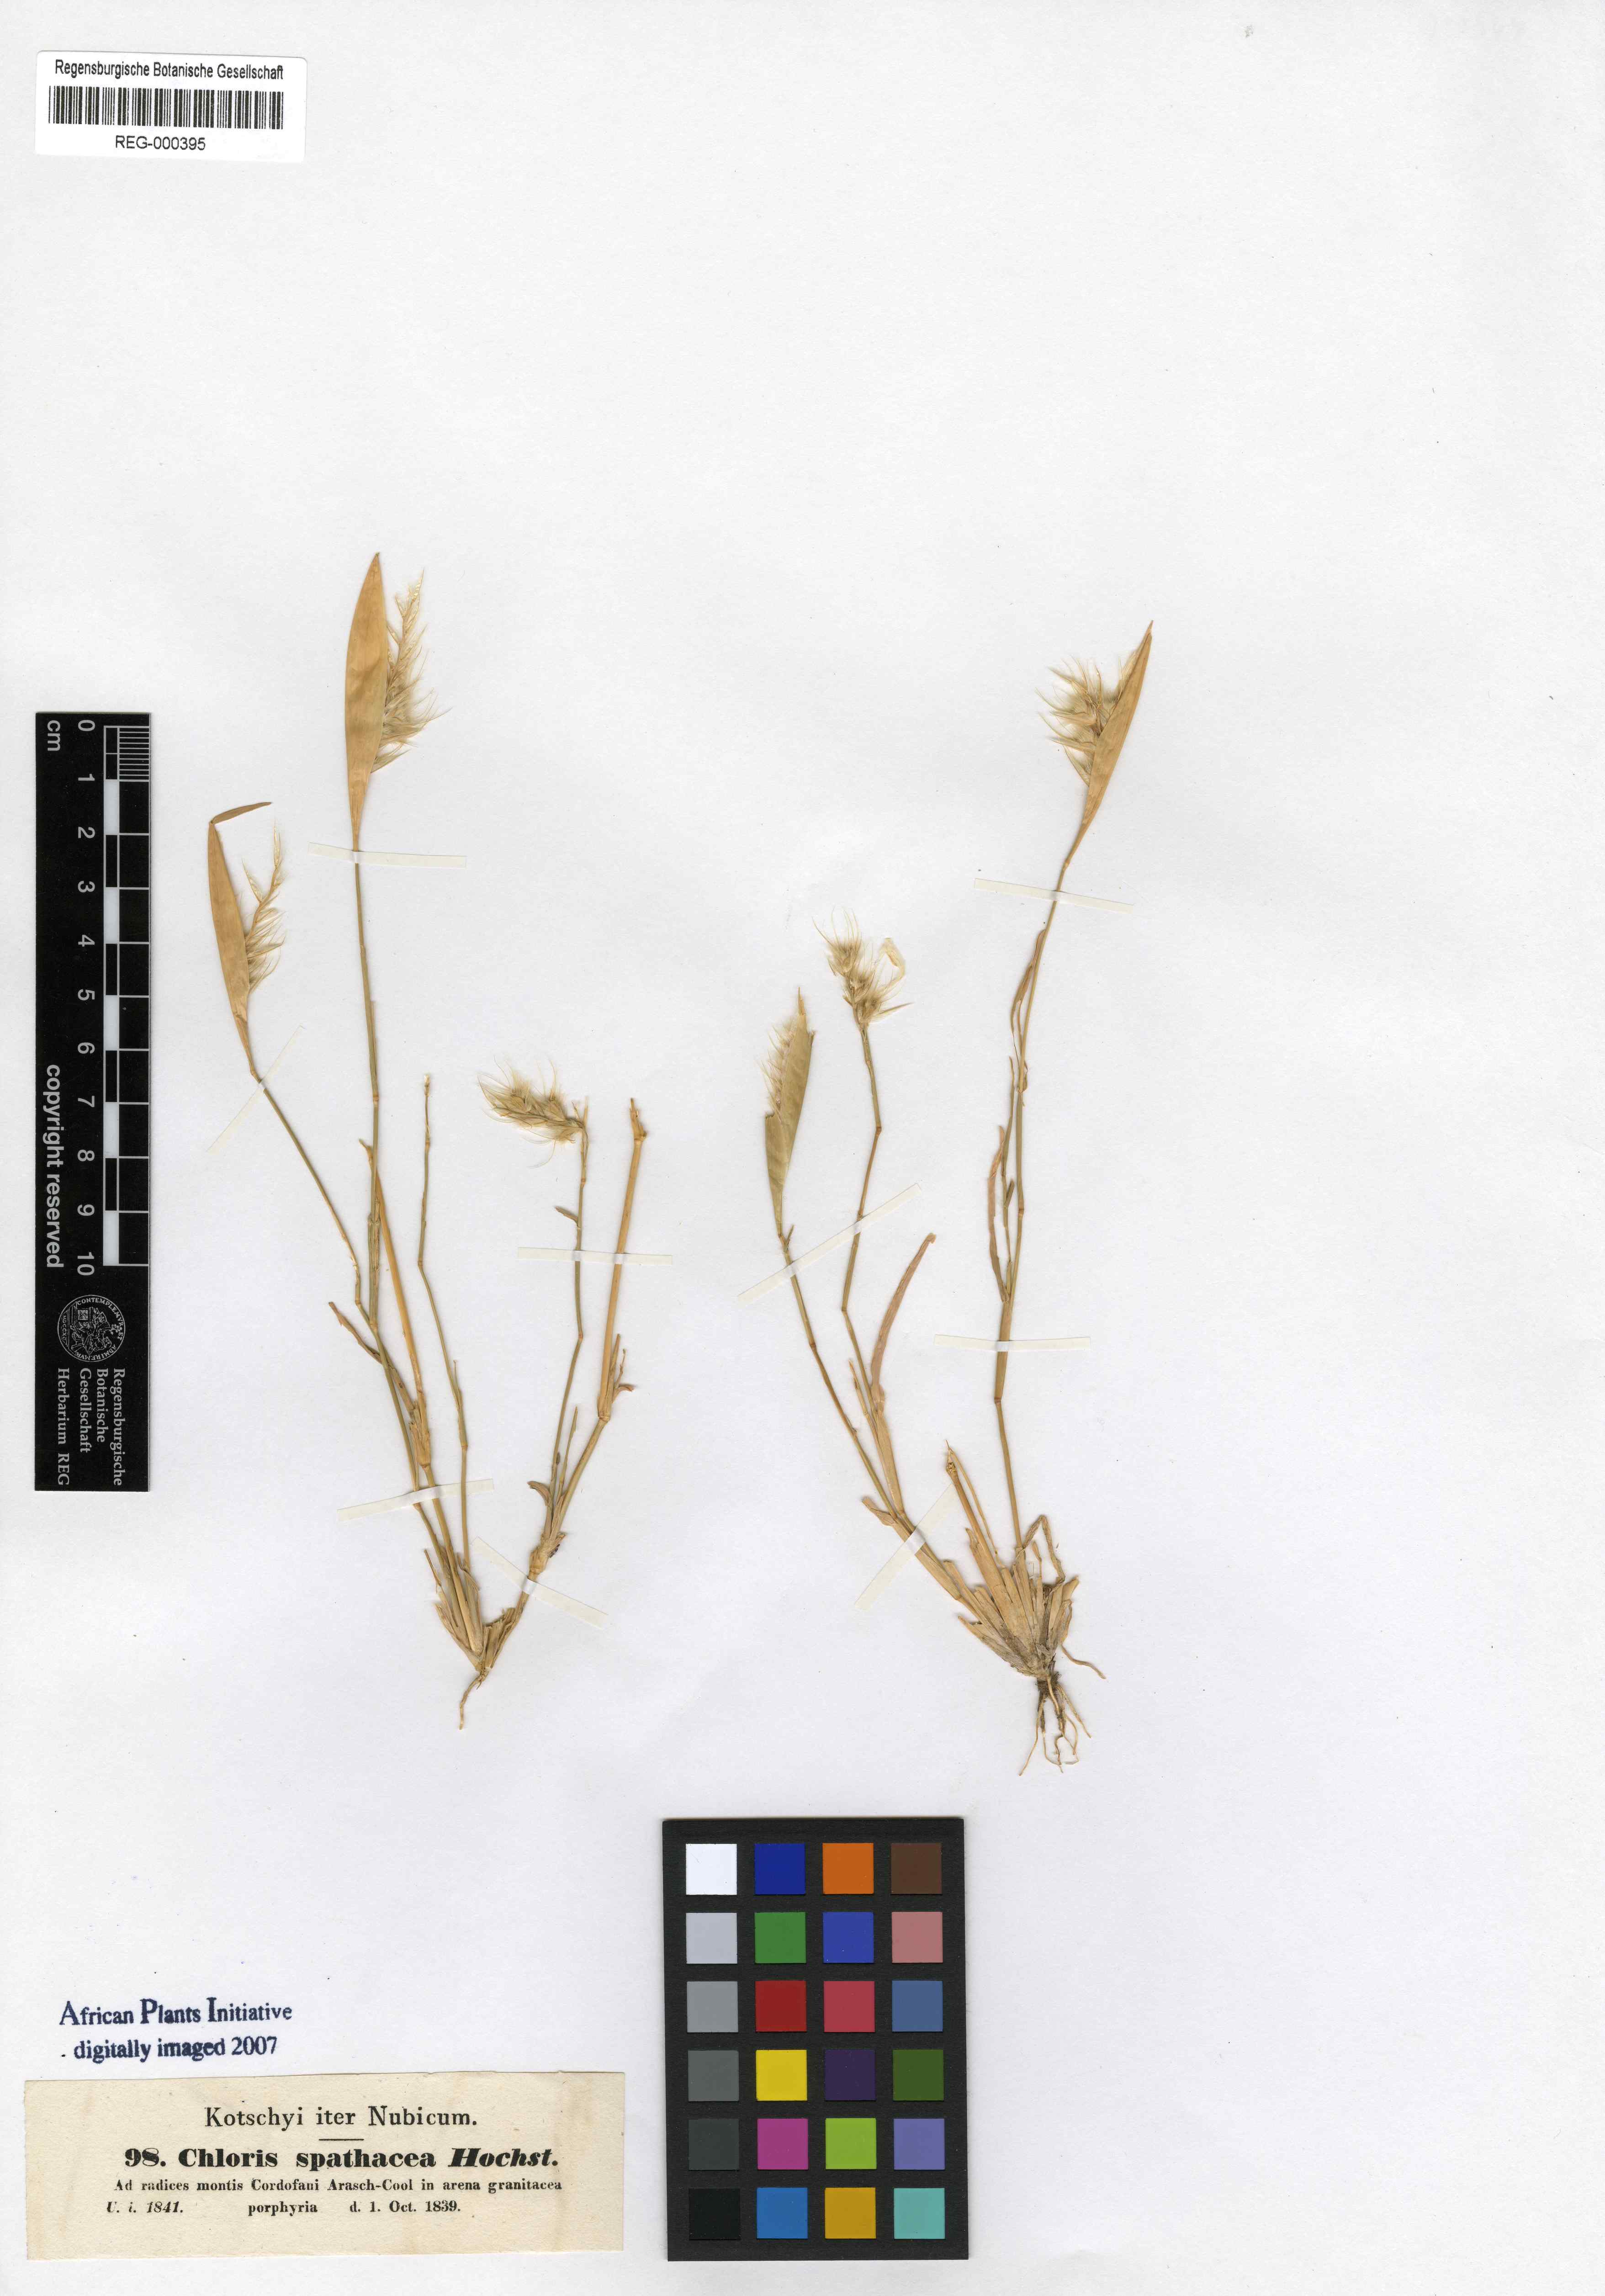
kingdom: Plantae
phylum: Tracheophyta
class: Liliopsida
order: Poales
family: Poaceae
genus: Tetrapogon
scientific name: Tetrapogon cenchriformis
